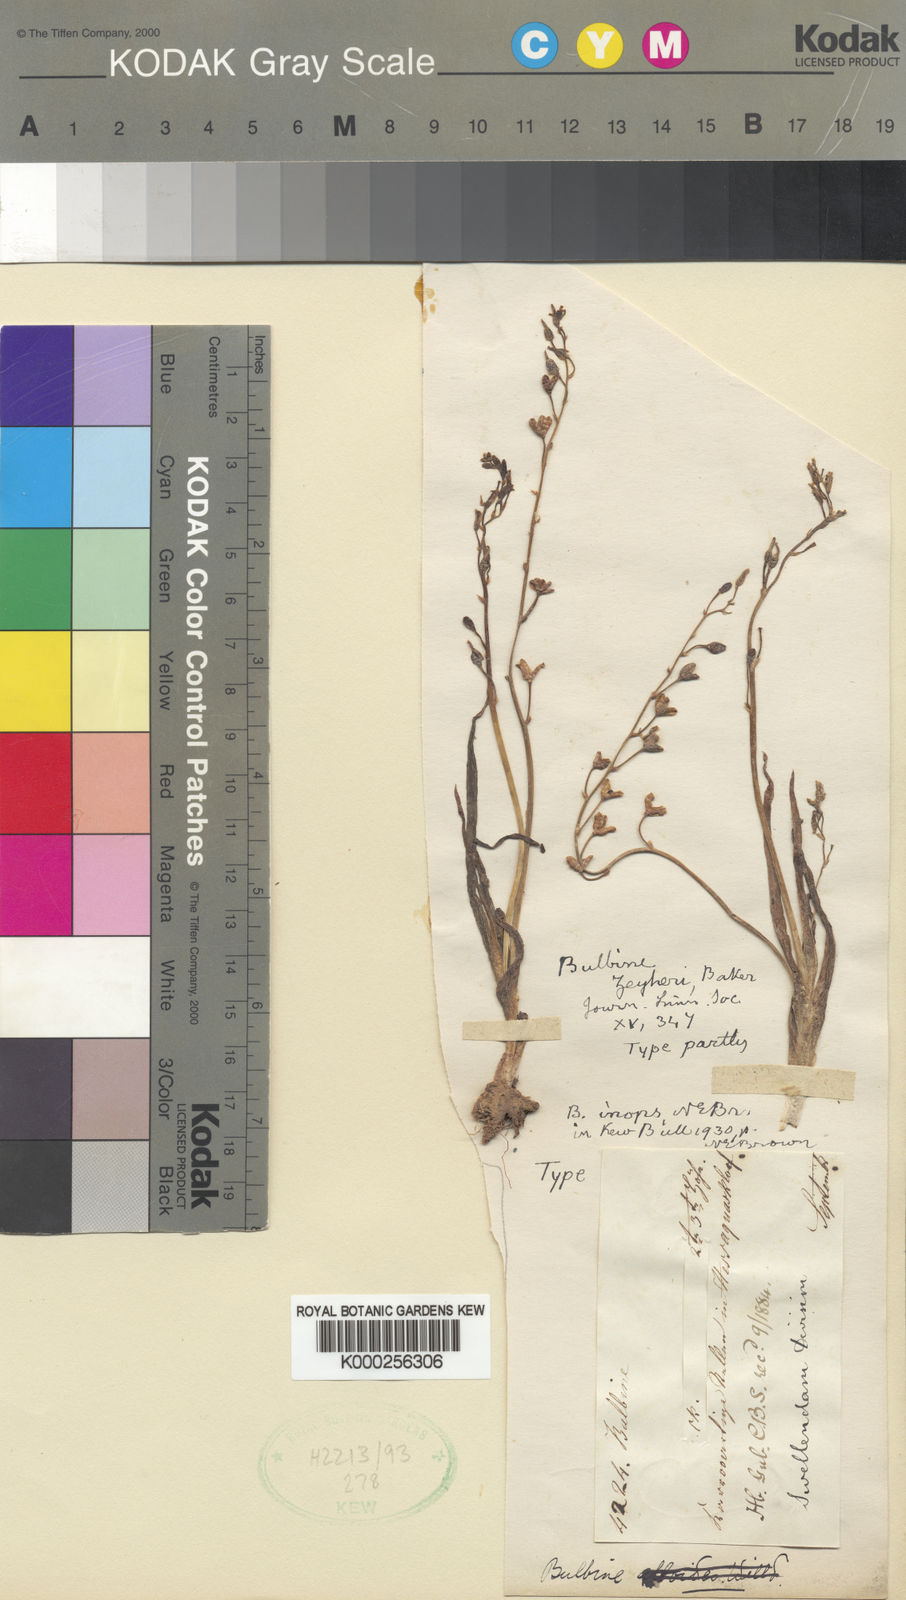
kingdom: Plantae
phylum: Tracheophyta
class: Liliopsida
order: Asparagales
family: Asphodelaceae
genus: Bulbine
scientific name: Bulbine
